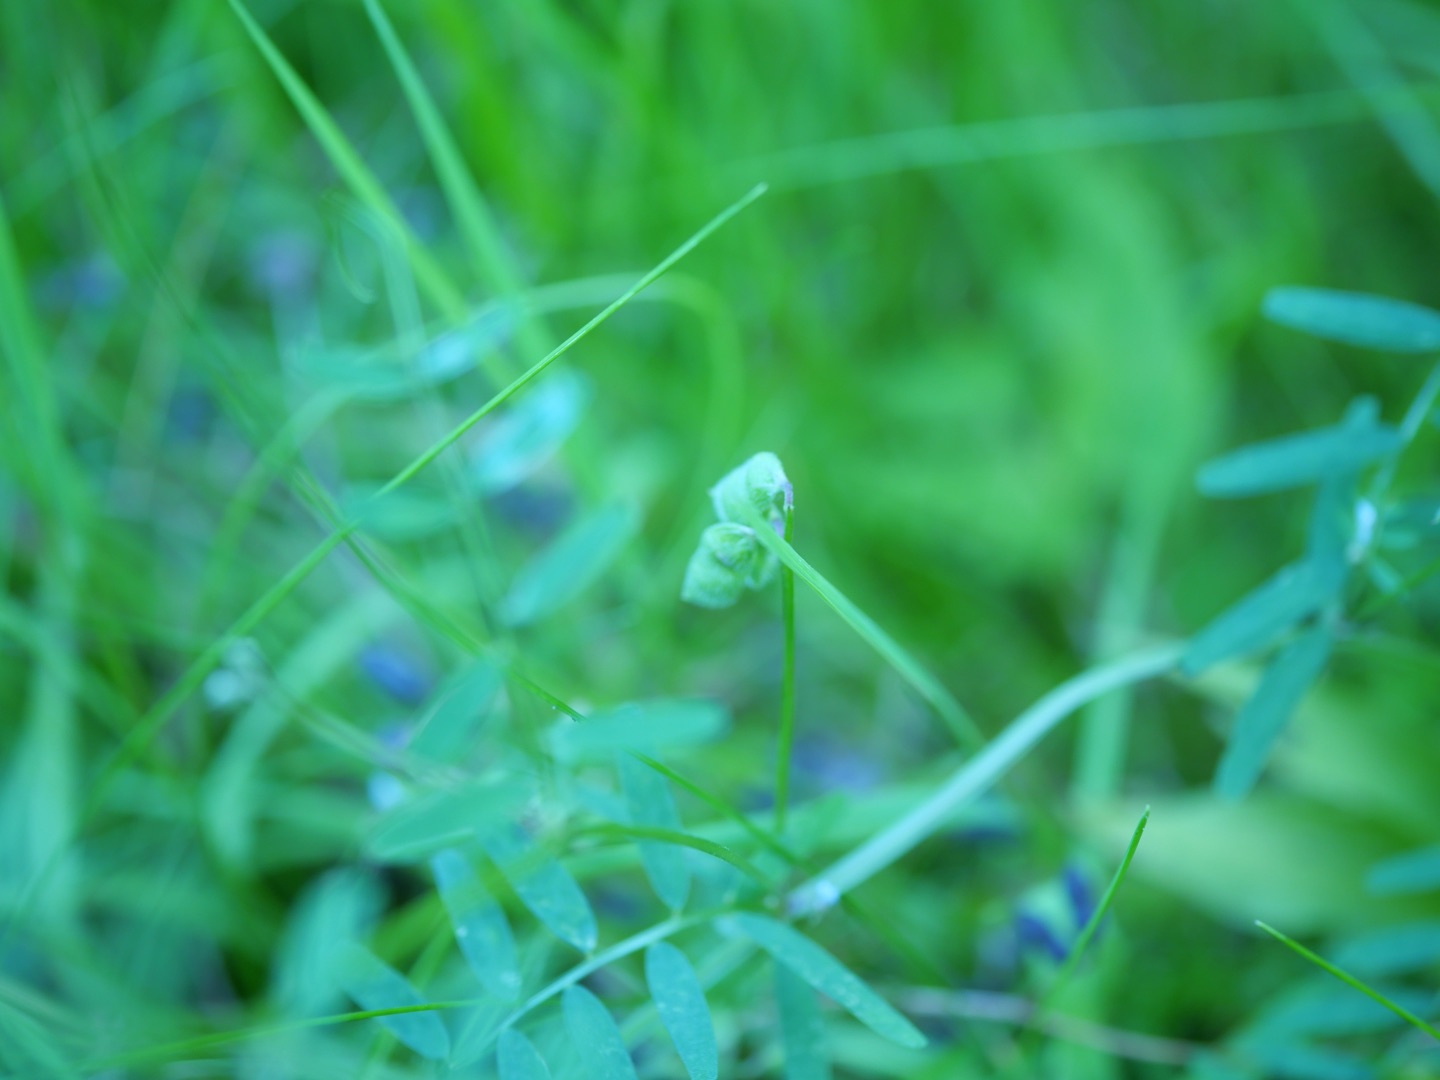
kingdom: Plantae
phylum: Tracheophyta
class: Magnoliopsida
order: Fabales
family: Fabaceae
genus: Vicia
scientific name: Vicia hirsuta
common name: Tofrøet vikke
